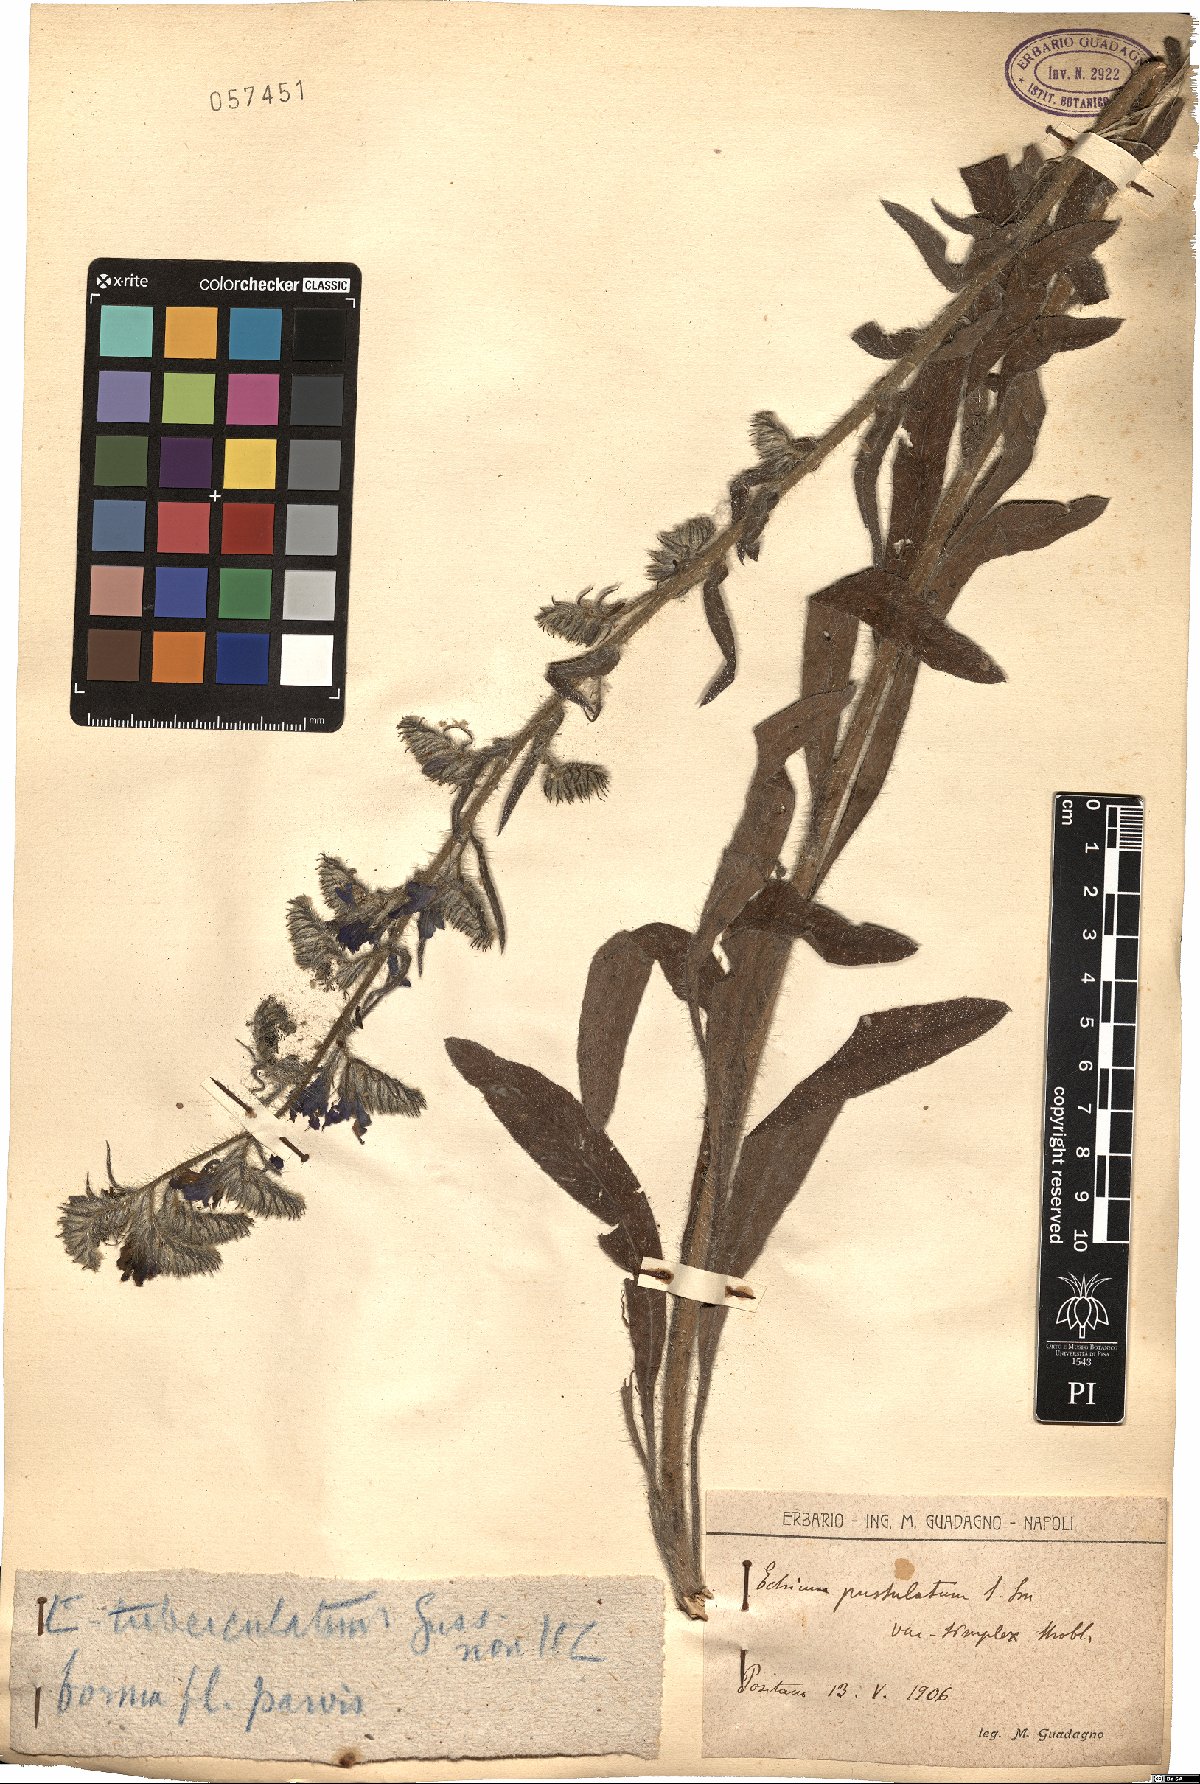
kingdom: Plantae
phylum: Tracheophyta
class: Magnoliopsida
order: Boraginales
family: Boraginaceae
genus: Echium
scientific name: Echium tuberculatum
